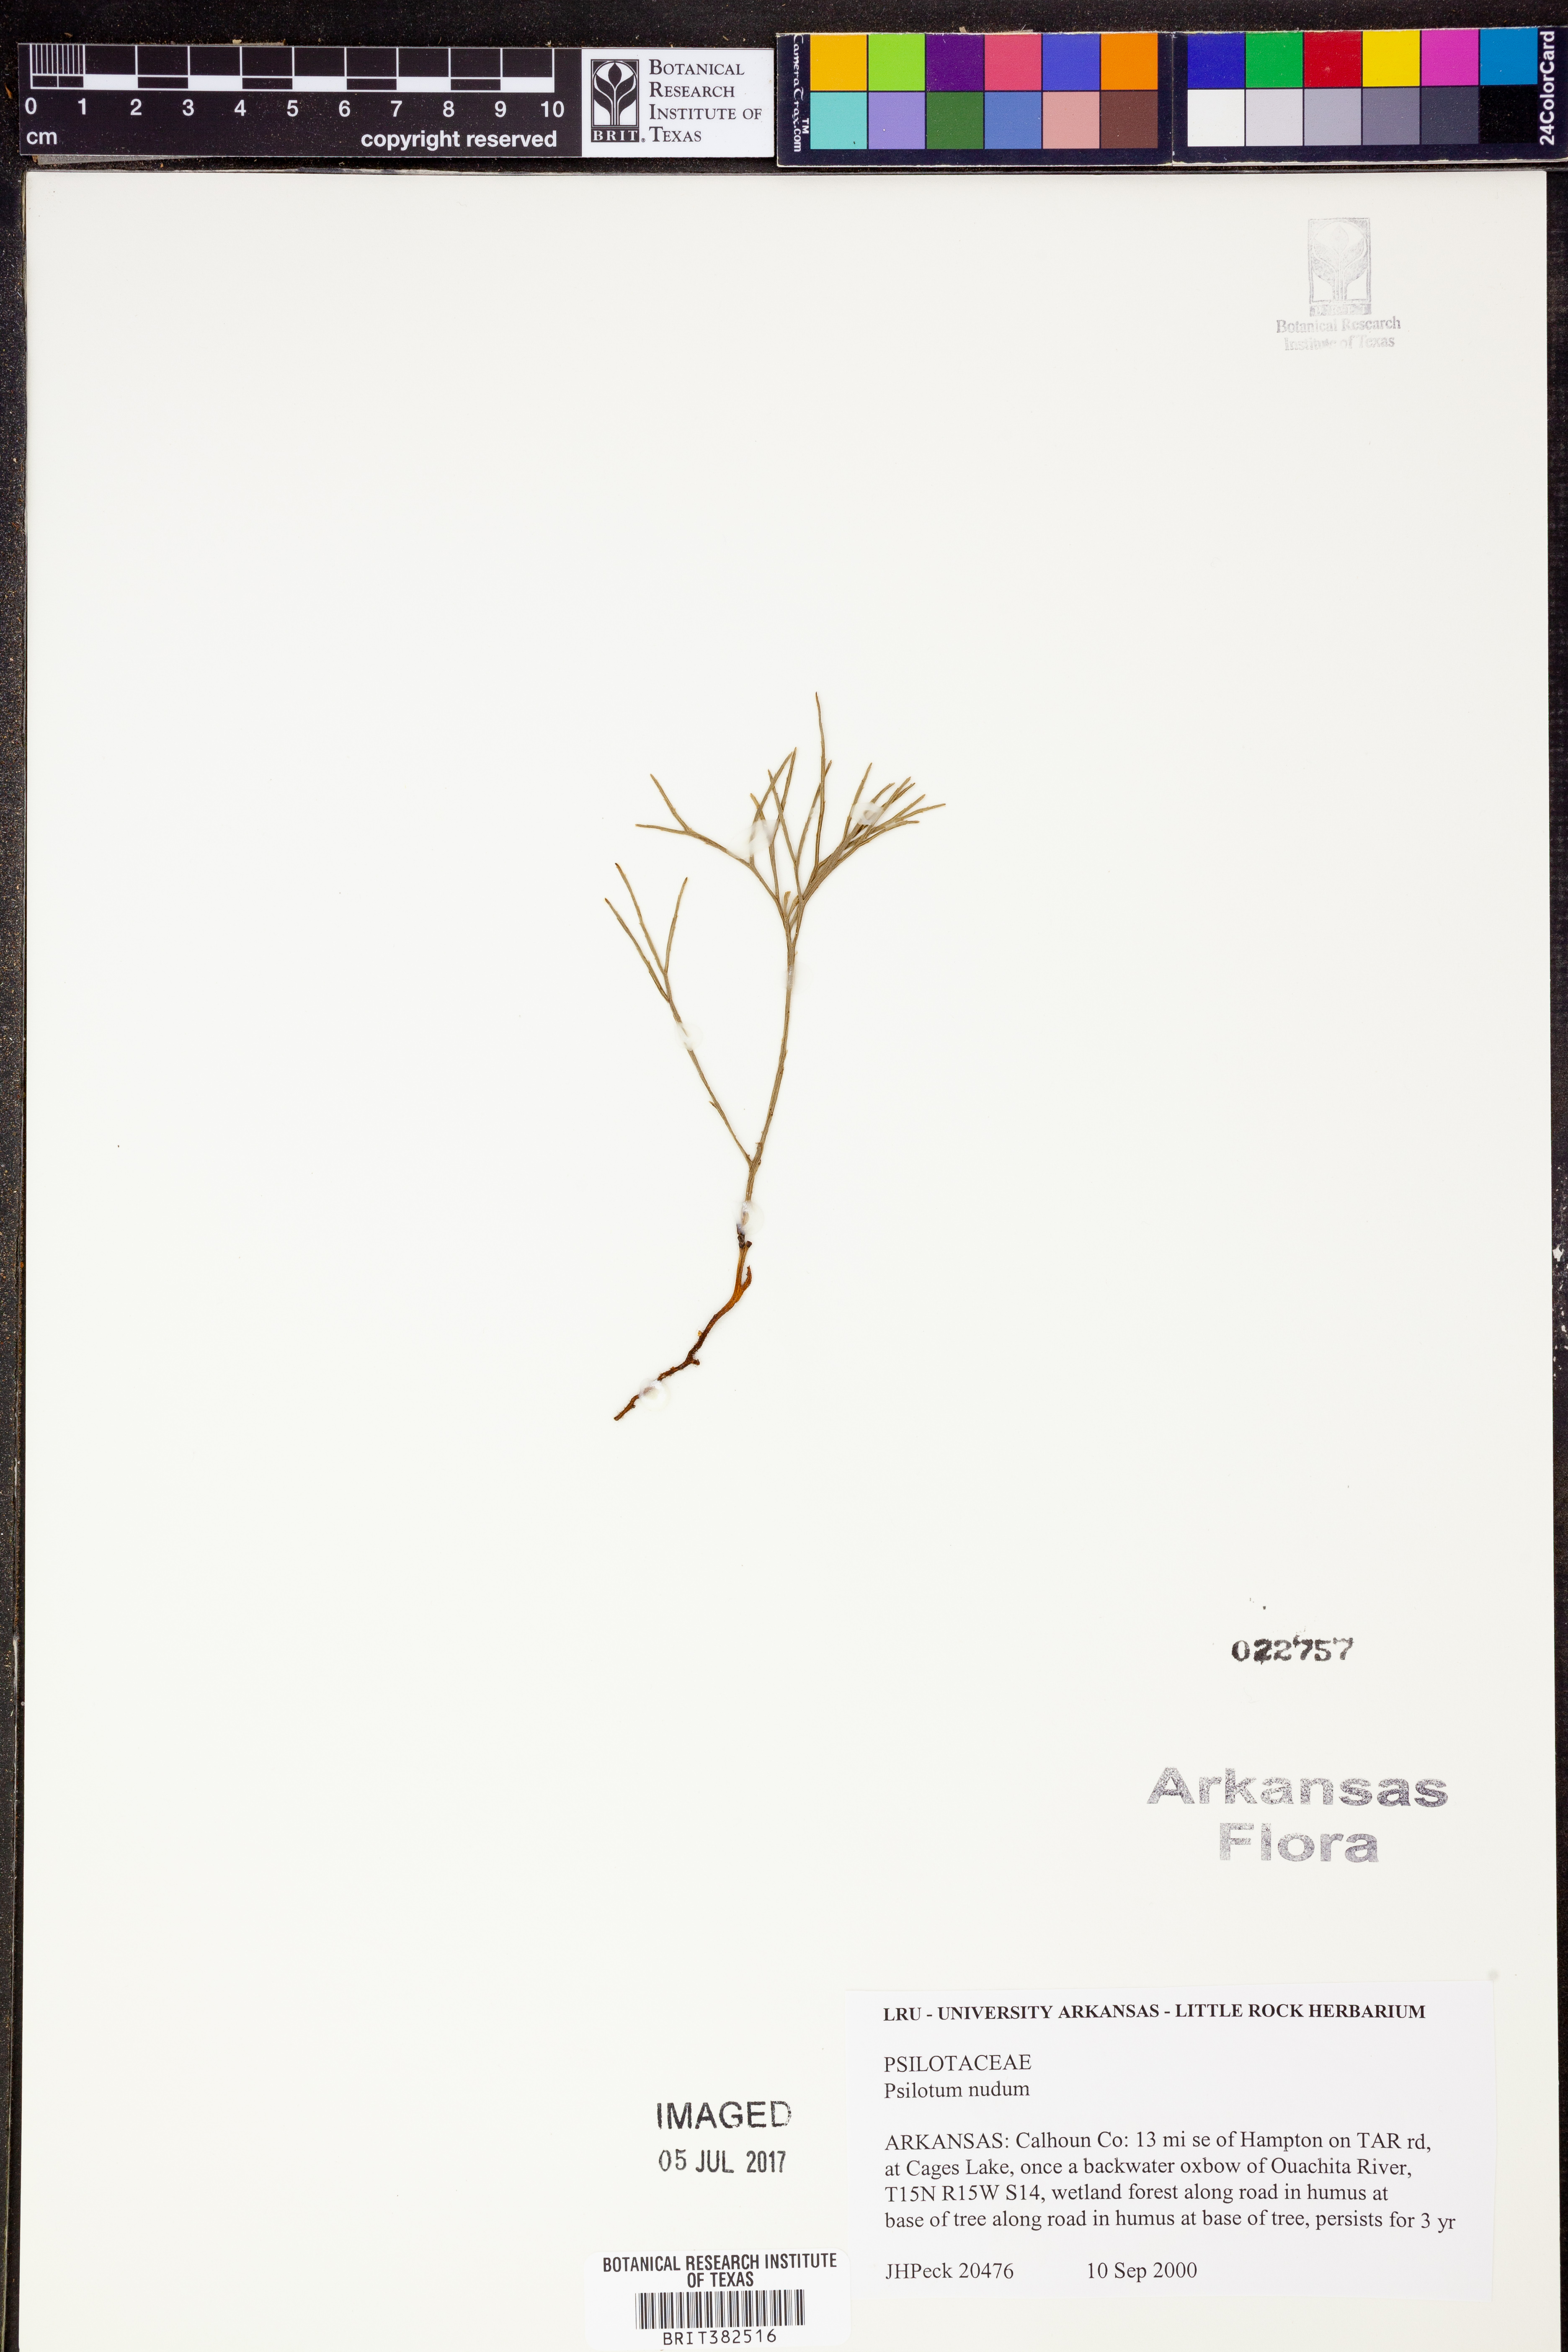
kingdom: Plantae
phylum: Tracheophyta
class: Polypodiopsida
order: Psilotales
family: Psilotaceae
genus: Psilotum
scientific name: Psilotum nudum
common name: Skeleton fork fern
